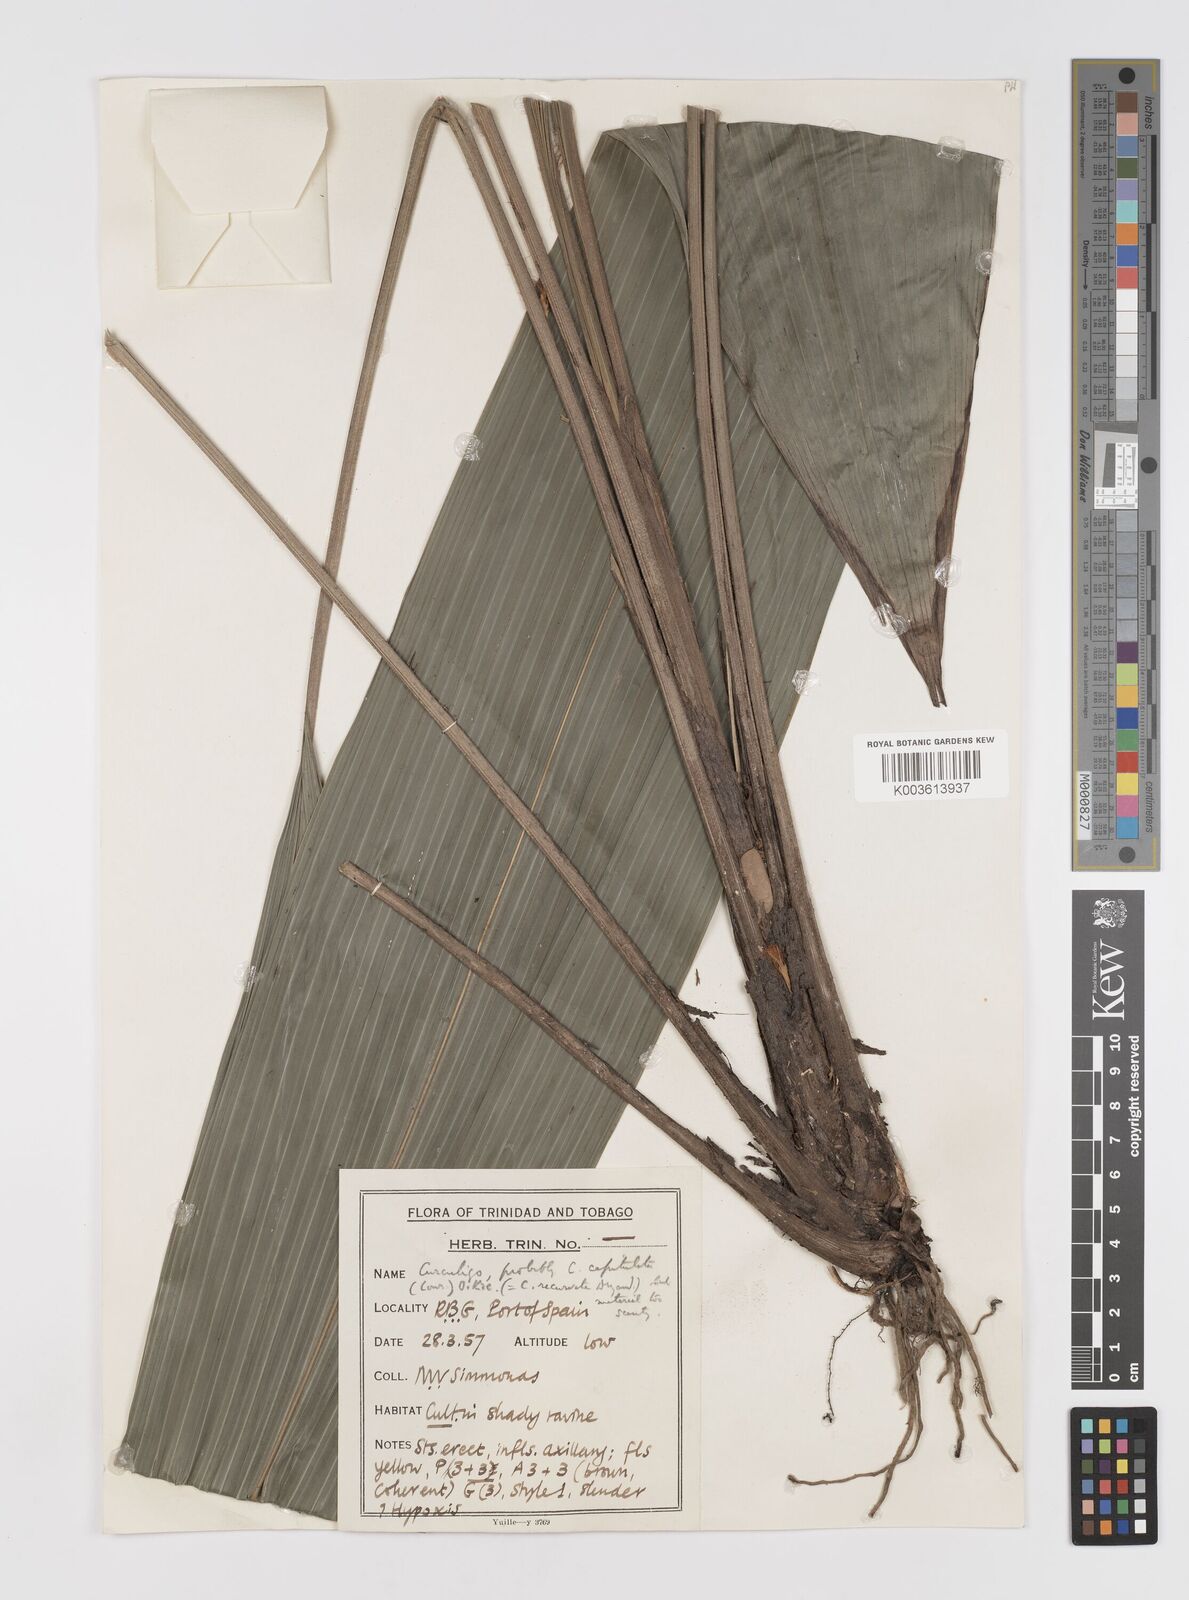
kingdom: Plantae
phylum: Tracheophyta
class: Liliopsida
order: Asparagales
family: Hypoxidaceae
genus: Curculigo
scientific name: Curculigo capitulata
